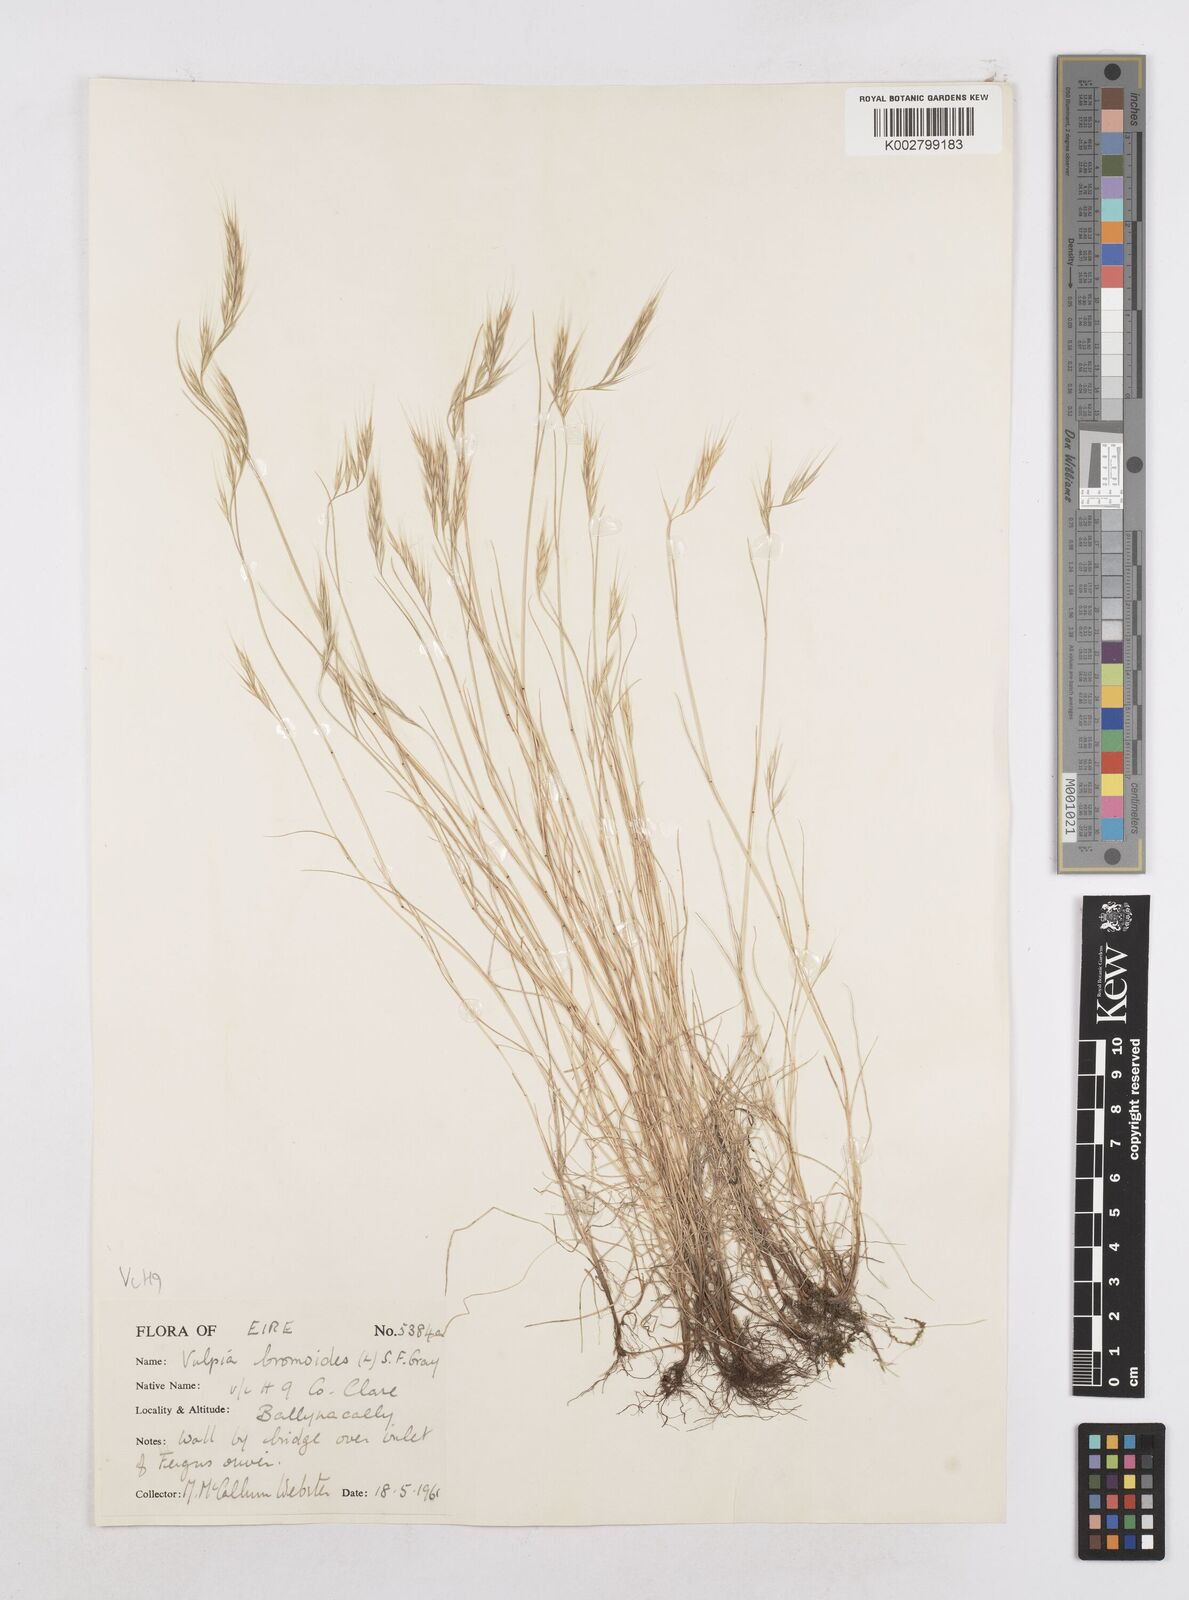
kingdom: Plantae
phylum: Tracheophyta
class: Liliopsida
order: Poales
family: Poaceae
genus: Festuca
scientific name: Festuca bromoides
